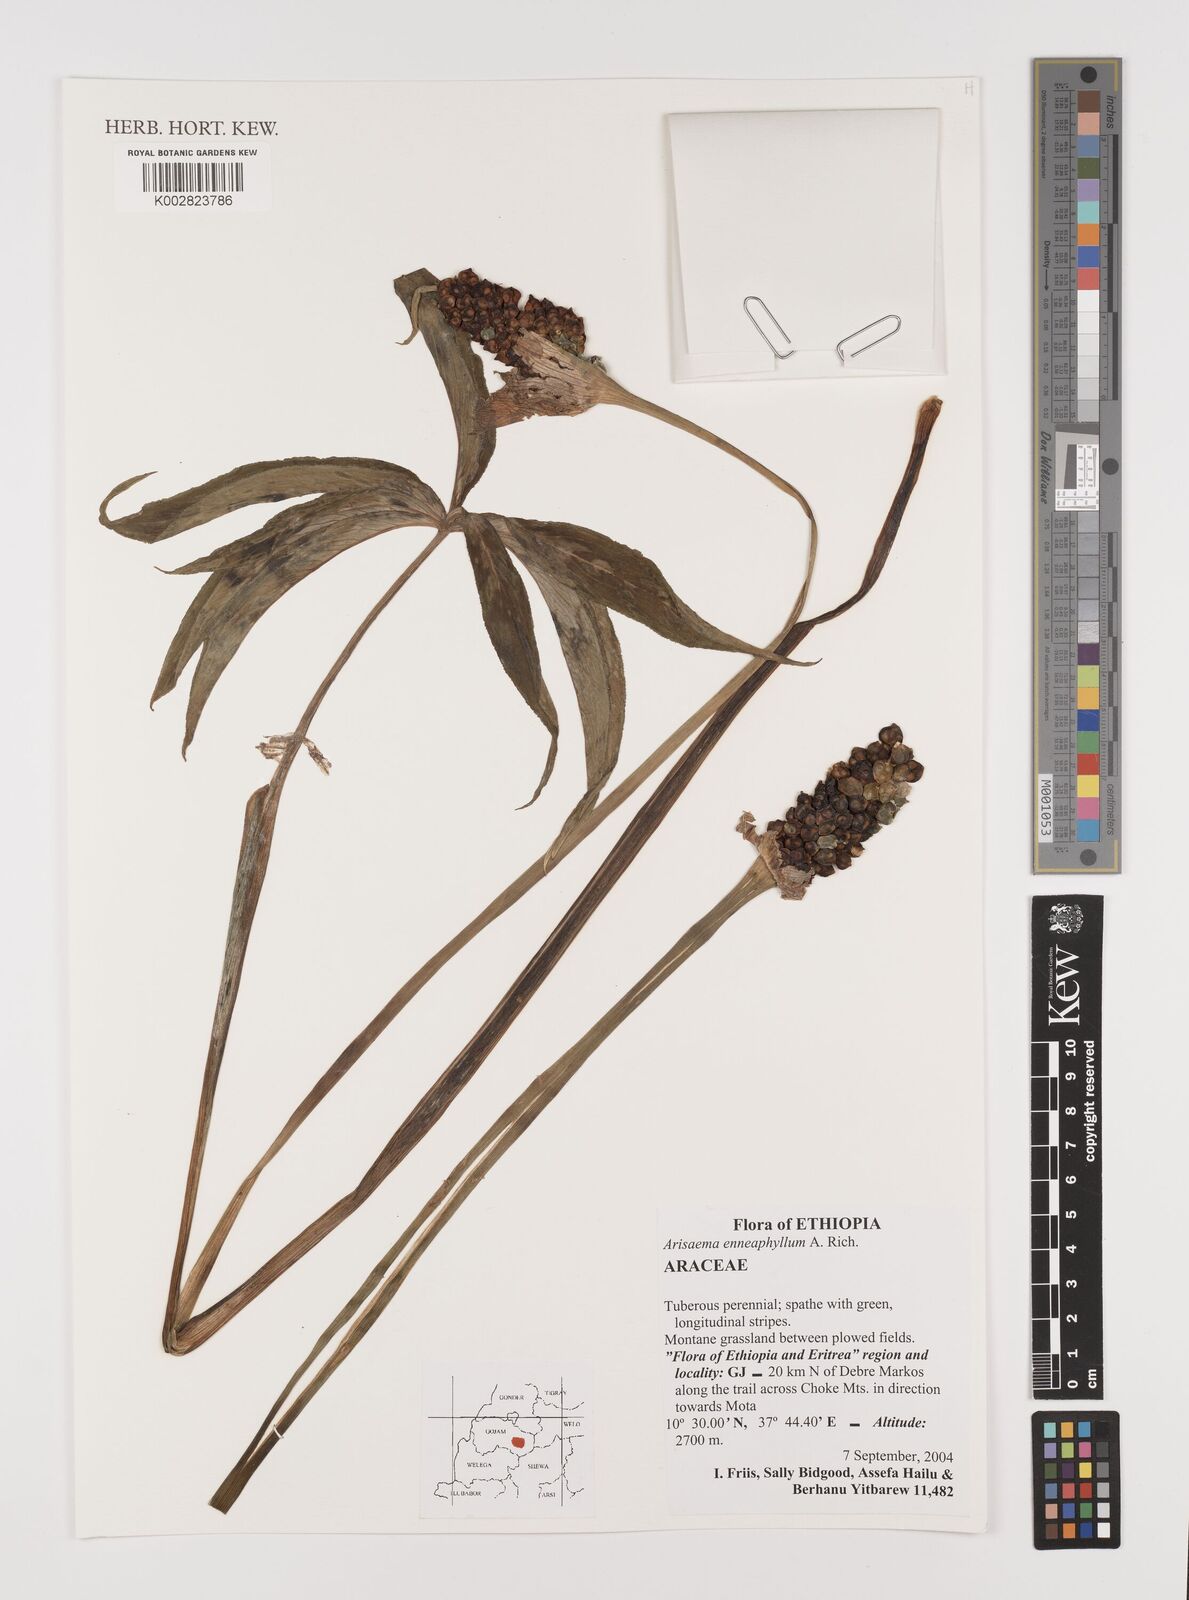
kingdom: Plantae
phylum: Tracheophyta
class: Liliopsida
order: Alismatales
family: Araceae
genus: Arisaema
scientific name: Arisaema enneaphyllum
